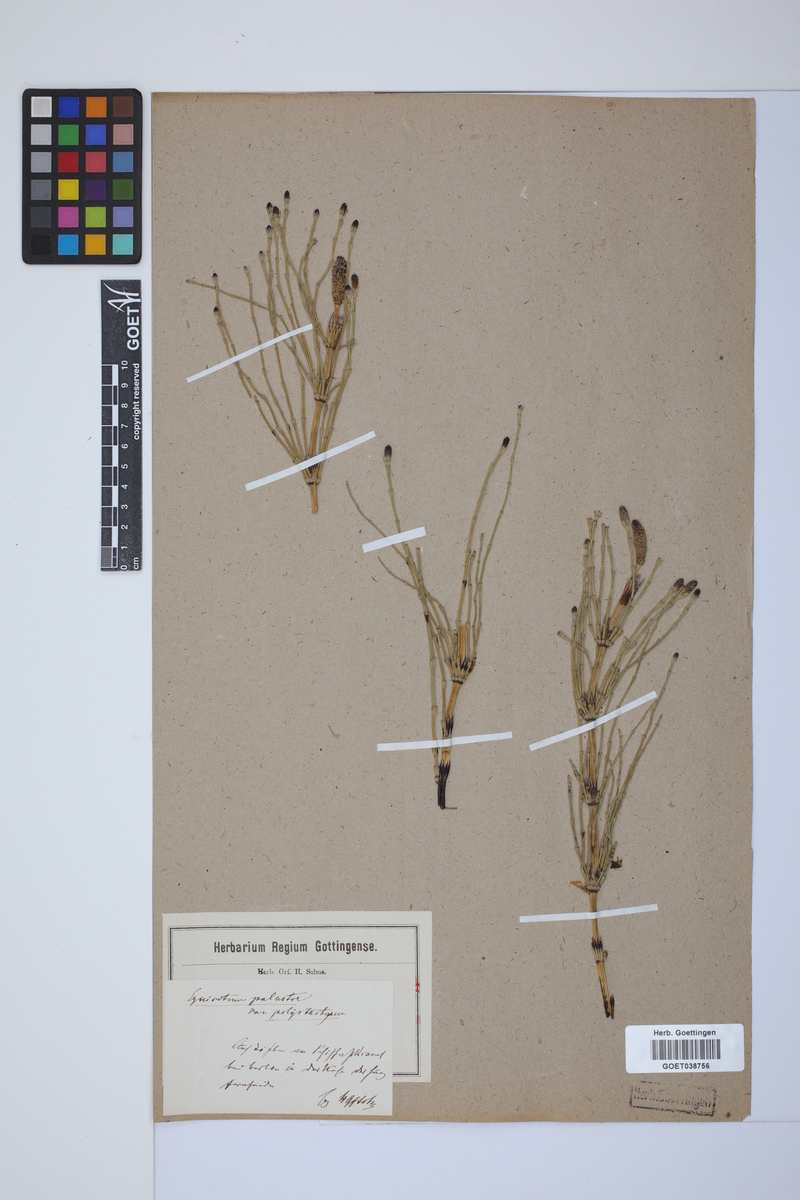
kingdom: Plantae
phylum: Tracheophyta
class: Polypodiopsida
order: Equisetales
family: Equisetaceae
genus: Equisetum
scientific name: Equisetum palustre
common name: Marsh horsetail
